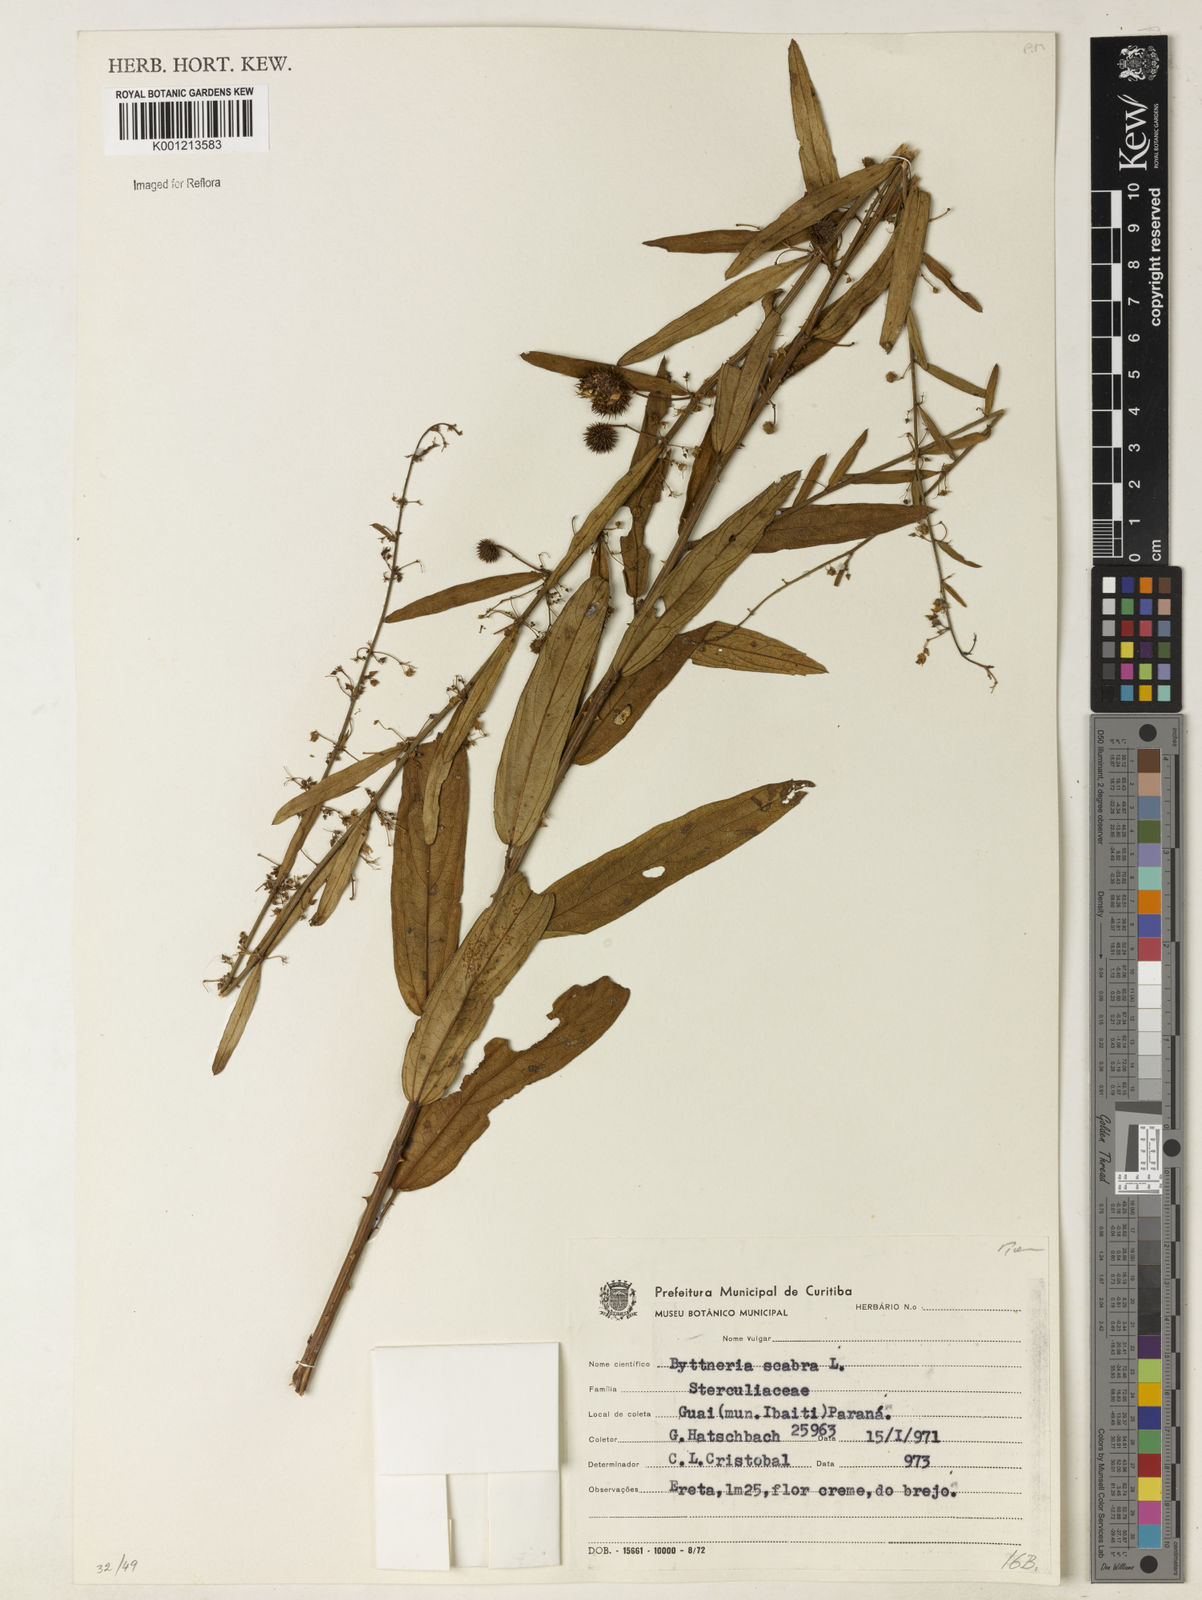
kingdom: Plantae
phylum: Tracheophyta
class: Magnoliopsida
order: Malvales
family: Malvaceae
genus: Byttneria
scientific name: Byttneria
